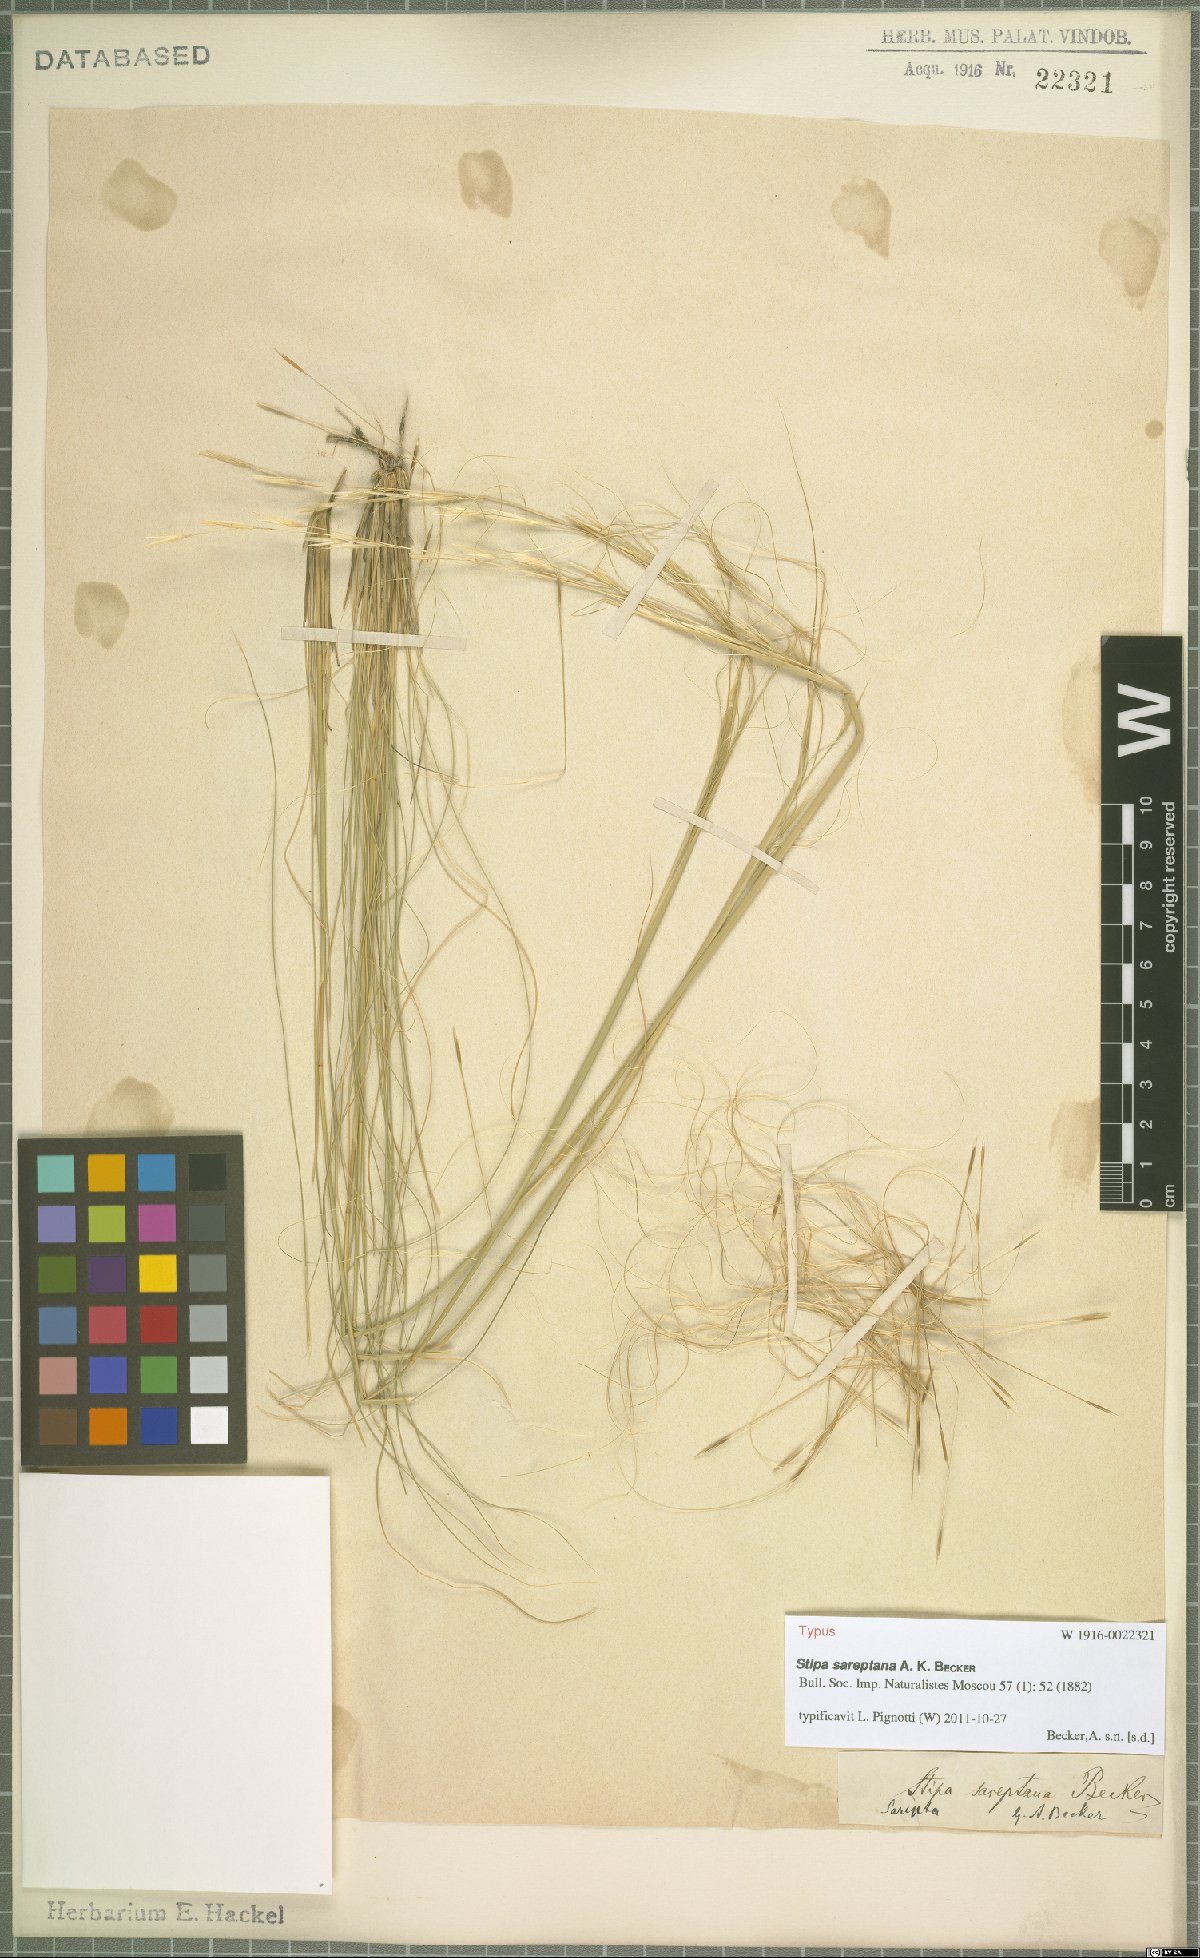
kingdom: Plantae
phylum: Tracheophyta
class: Liliopsida
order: Poales
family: Poaceae
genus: Stipa
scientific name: Stipa sareptana
